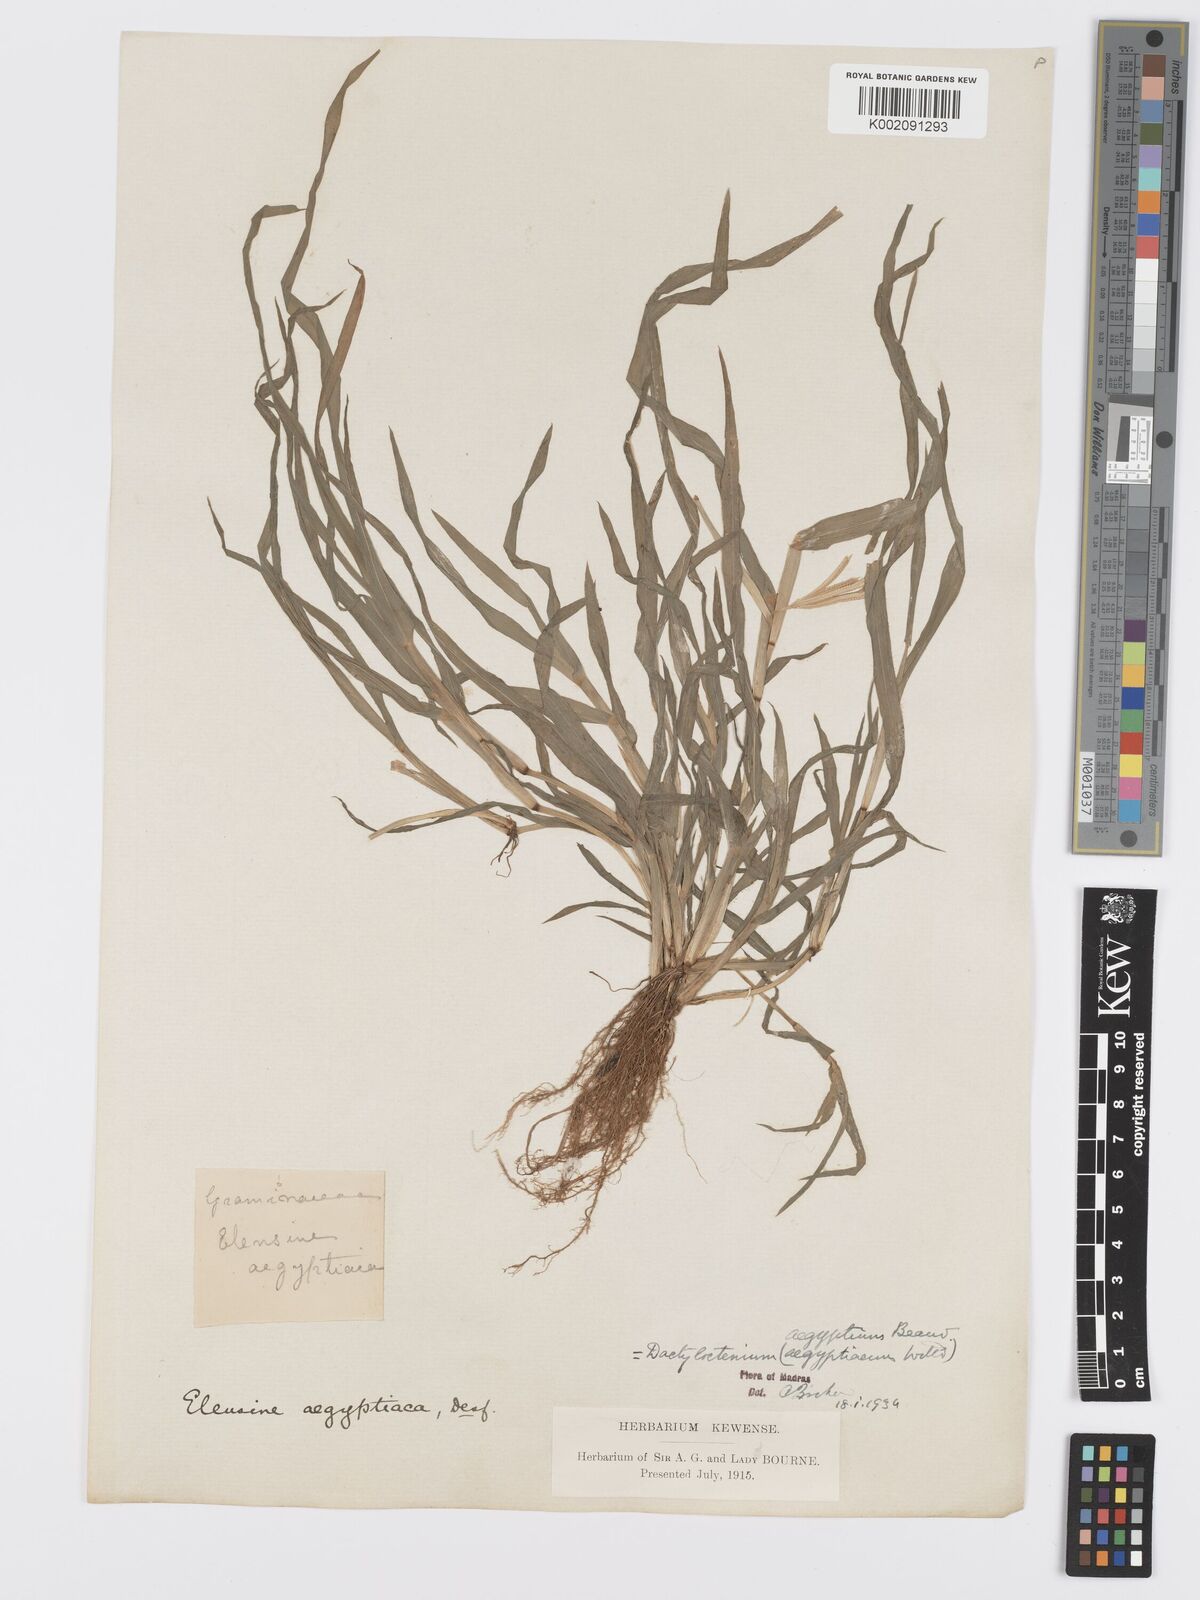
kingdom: Plantae
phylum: Tracheophyta
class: Liliopsida
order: Poales
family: Poaceae
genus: Dactyloctenium
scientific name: Dactyloctenium aegyptium
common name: Egyptian grass
